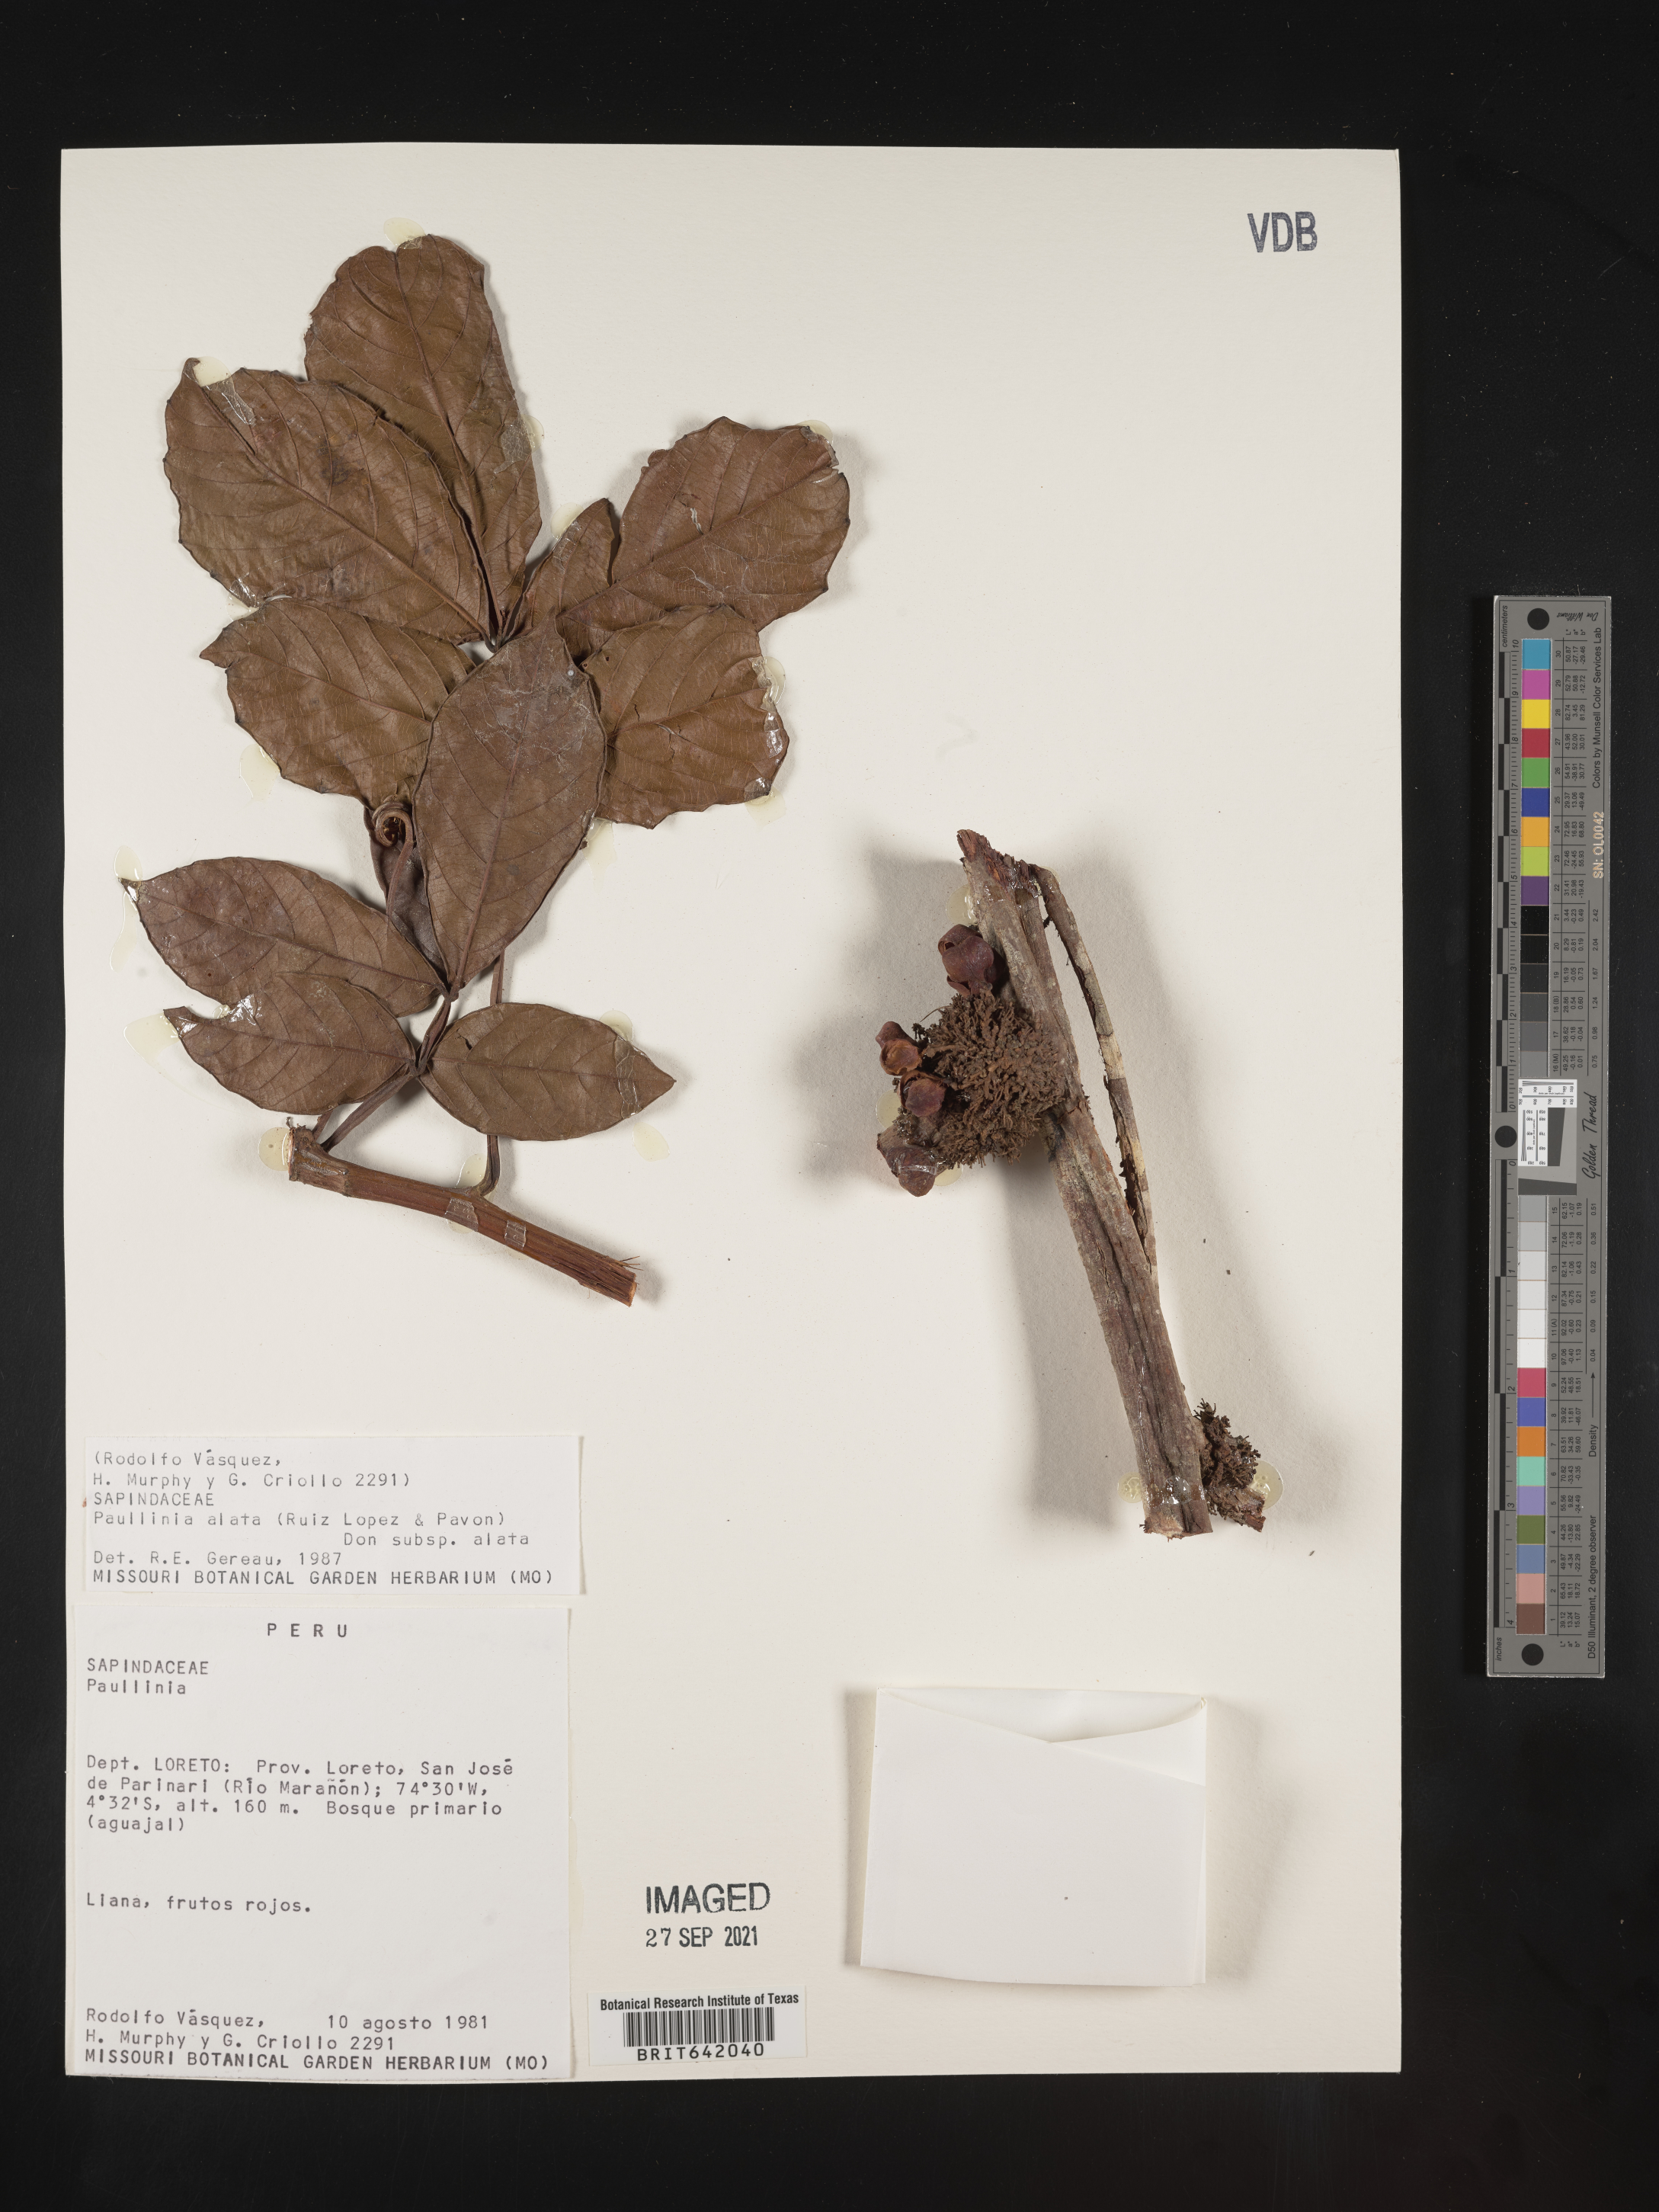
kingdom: Plantae
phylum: Tracheophyta
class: Magnoliopsida
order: Sapindales
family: Sapindaceae
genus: Paullinia
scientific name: Paullinia
